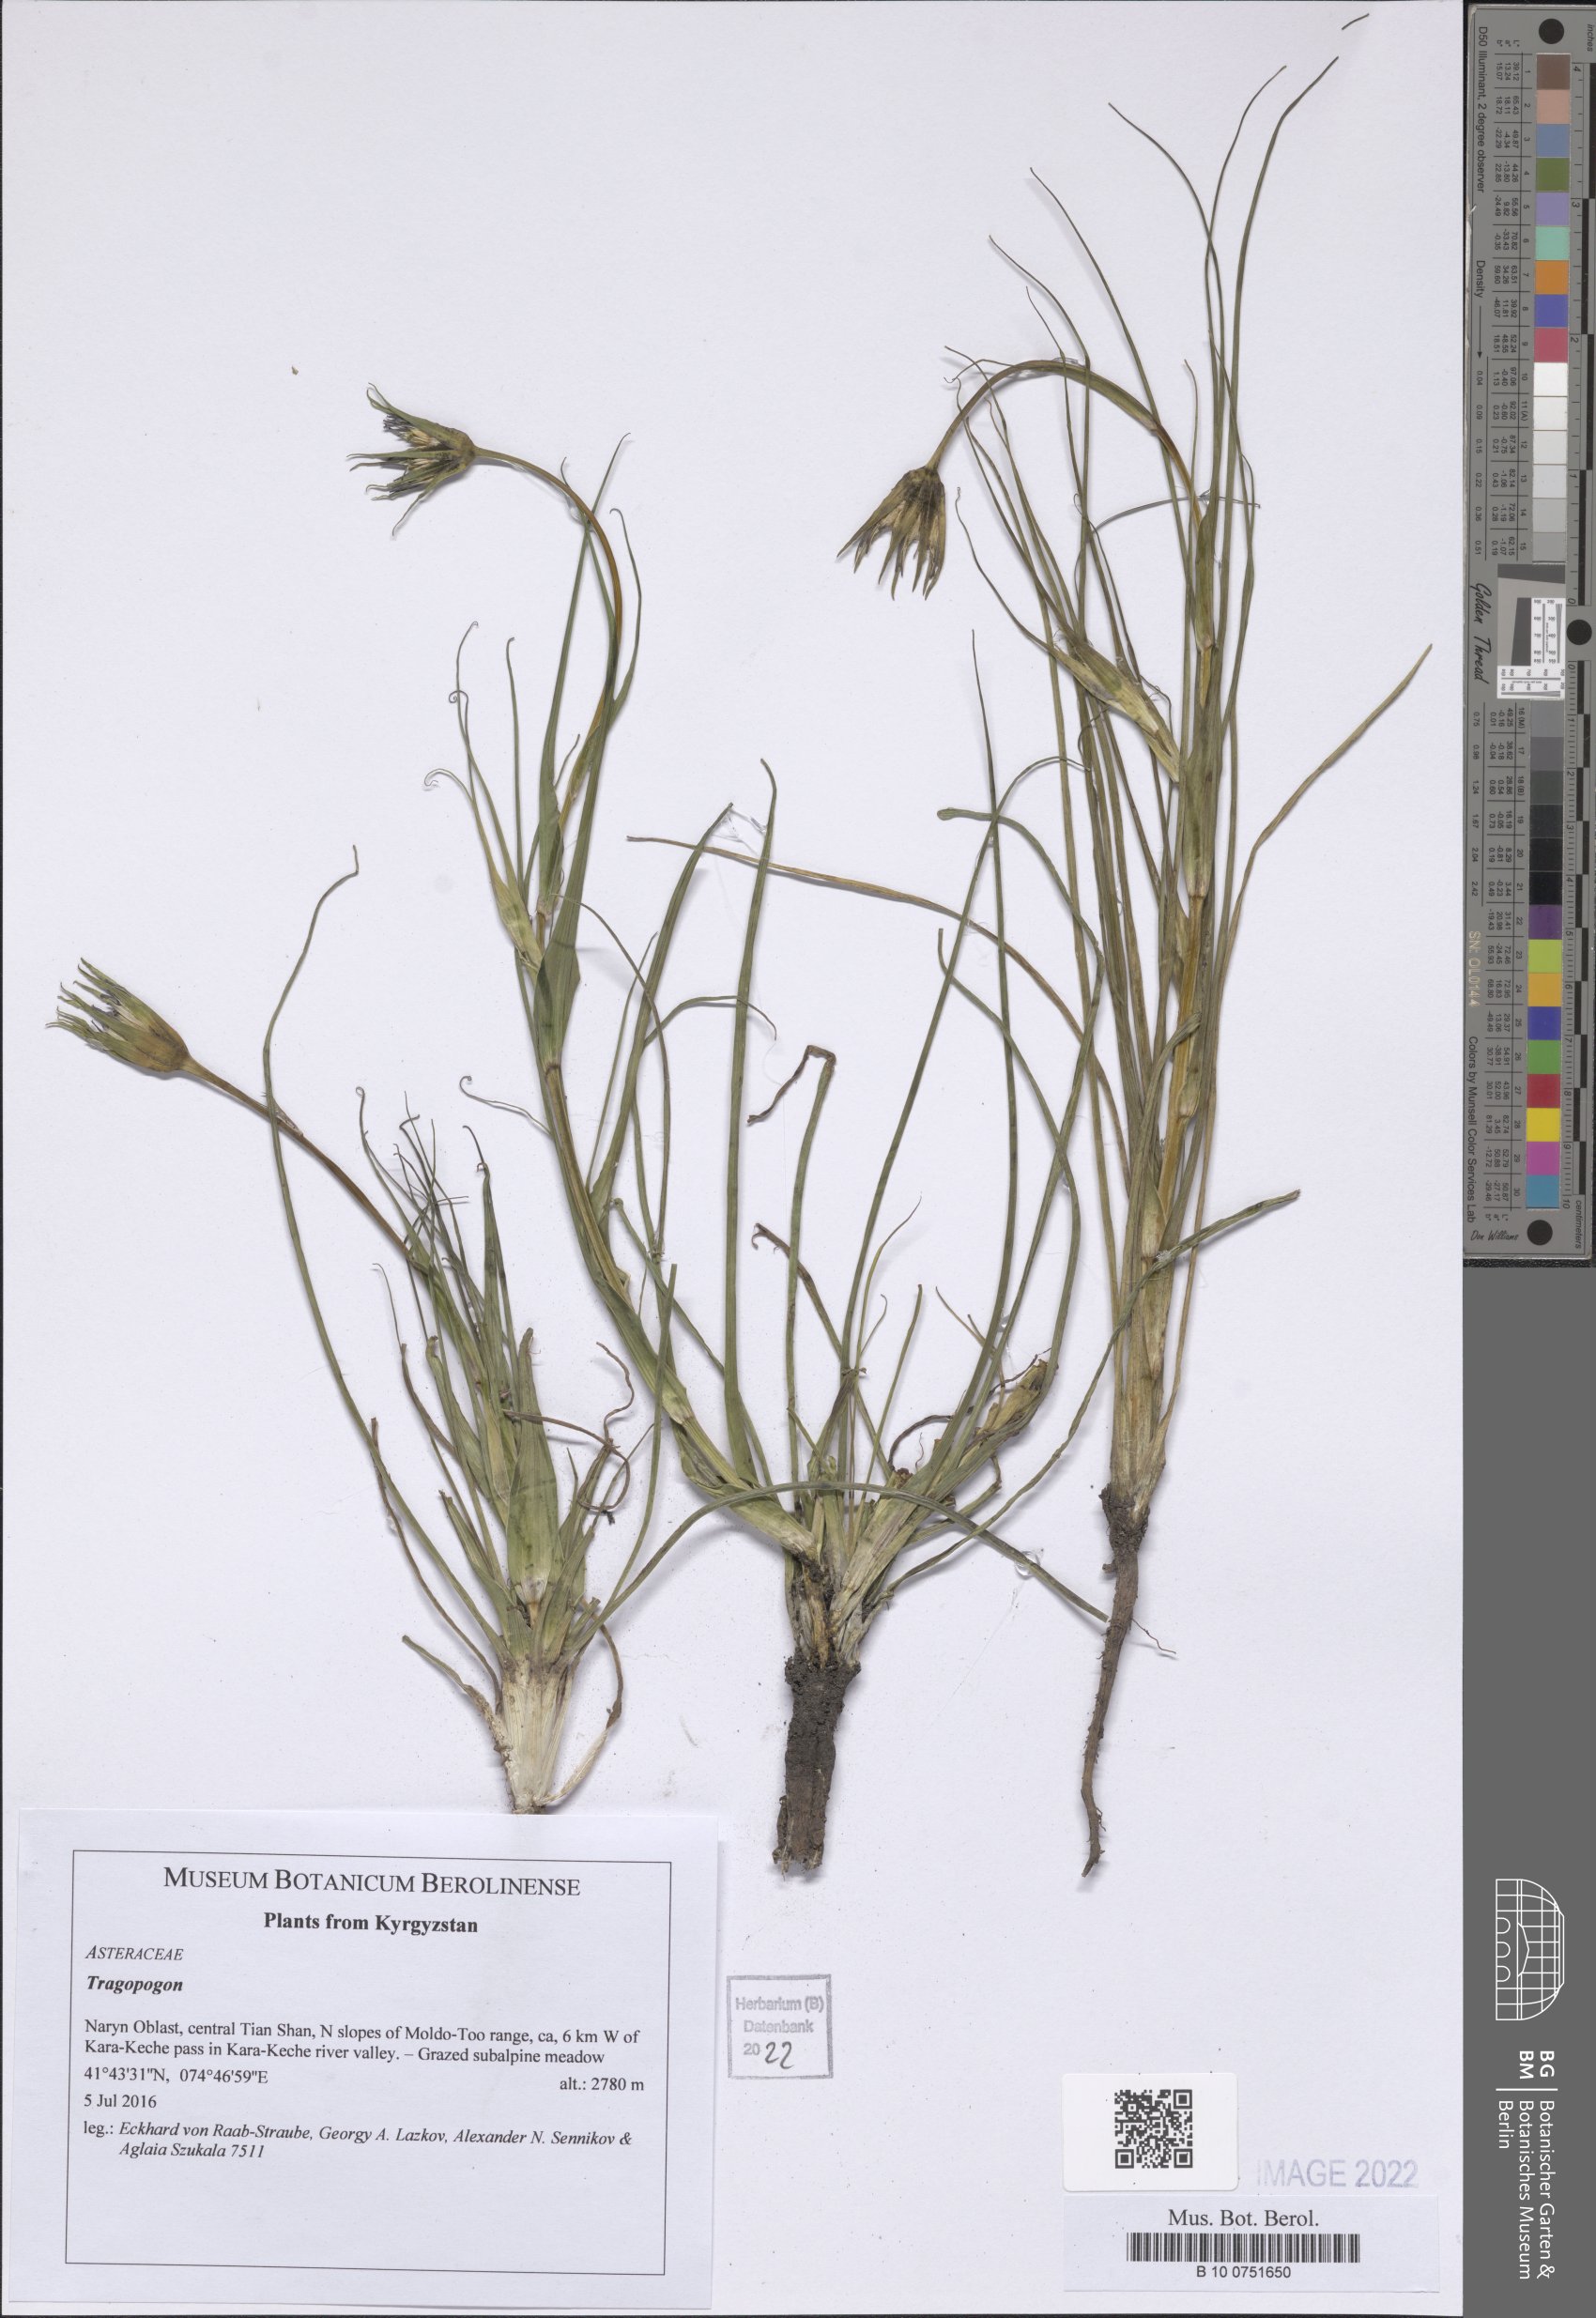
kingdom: Plantae
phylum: Tracheophyta
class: Magnoliopsida
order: Asterales
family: Asteraceae
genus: Tragopogon
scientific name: Tragopogon
